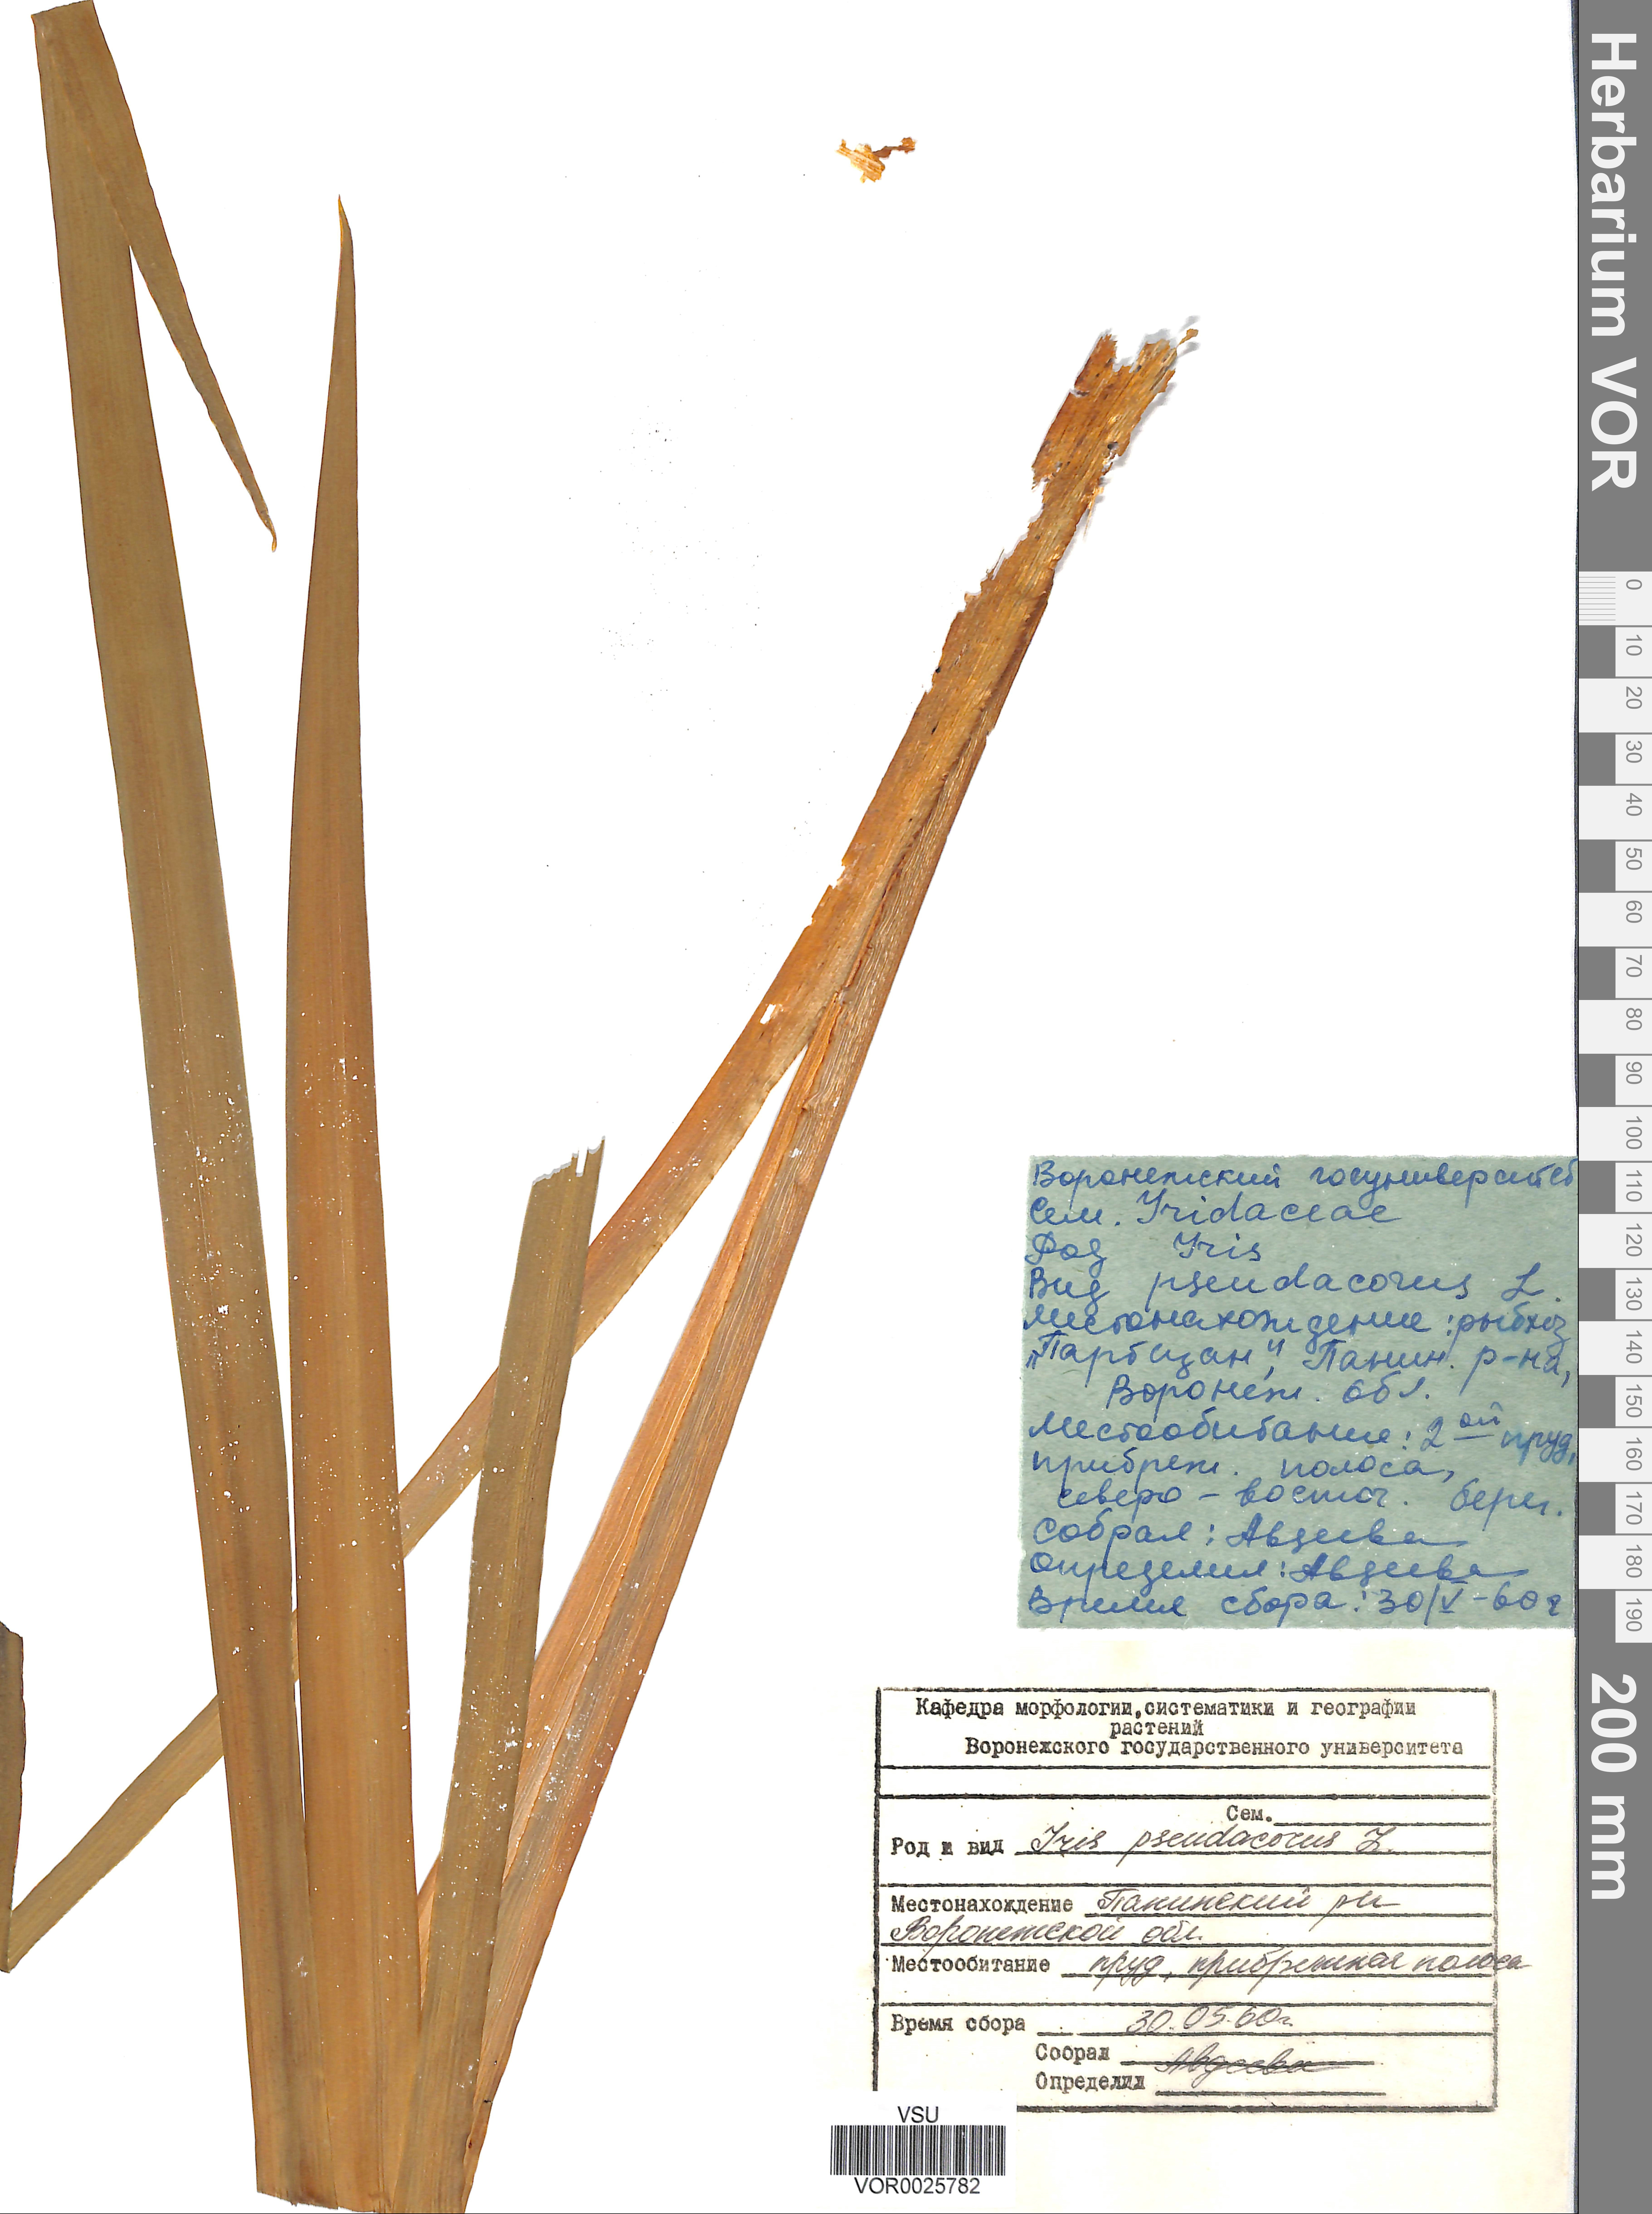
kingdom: Plantae
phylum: Tracheophyta
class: Liliopsida
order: Asparagales
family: Iridaceae
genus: Iris
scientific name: Iris pseudacorus
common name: Yellow flag
